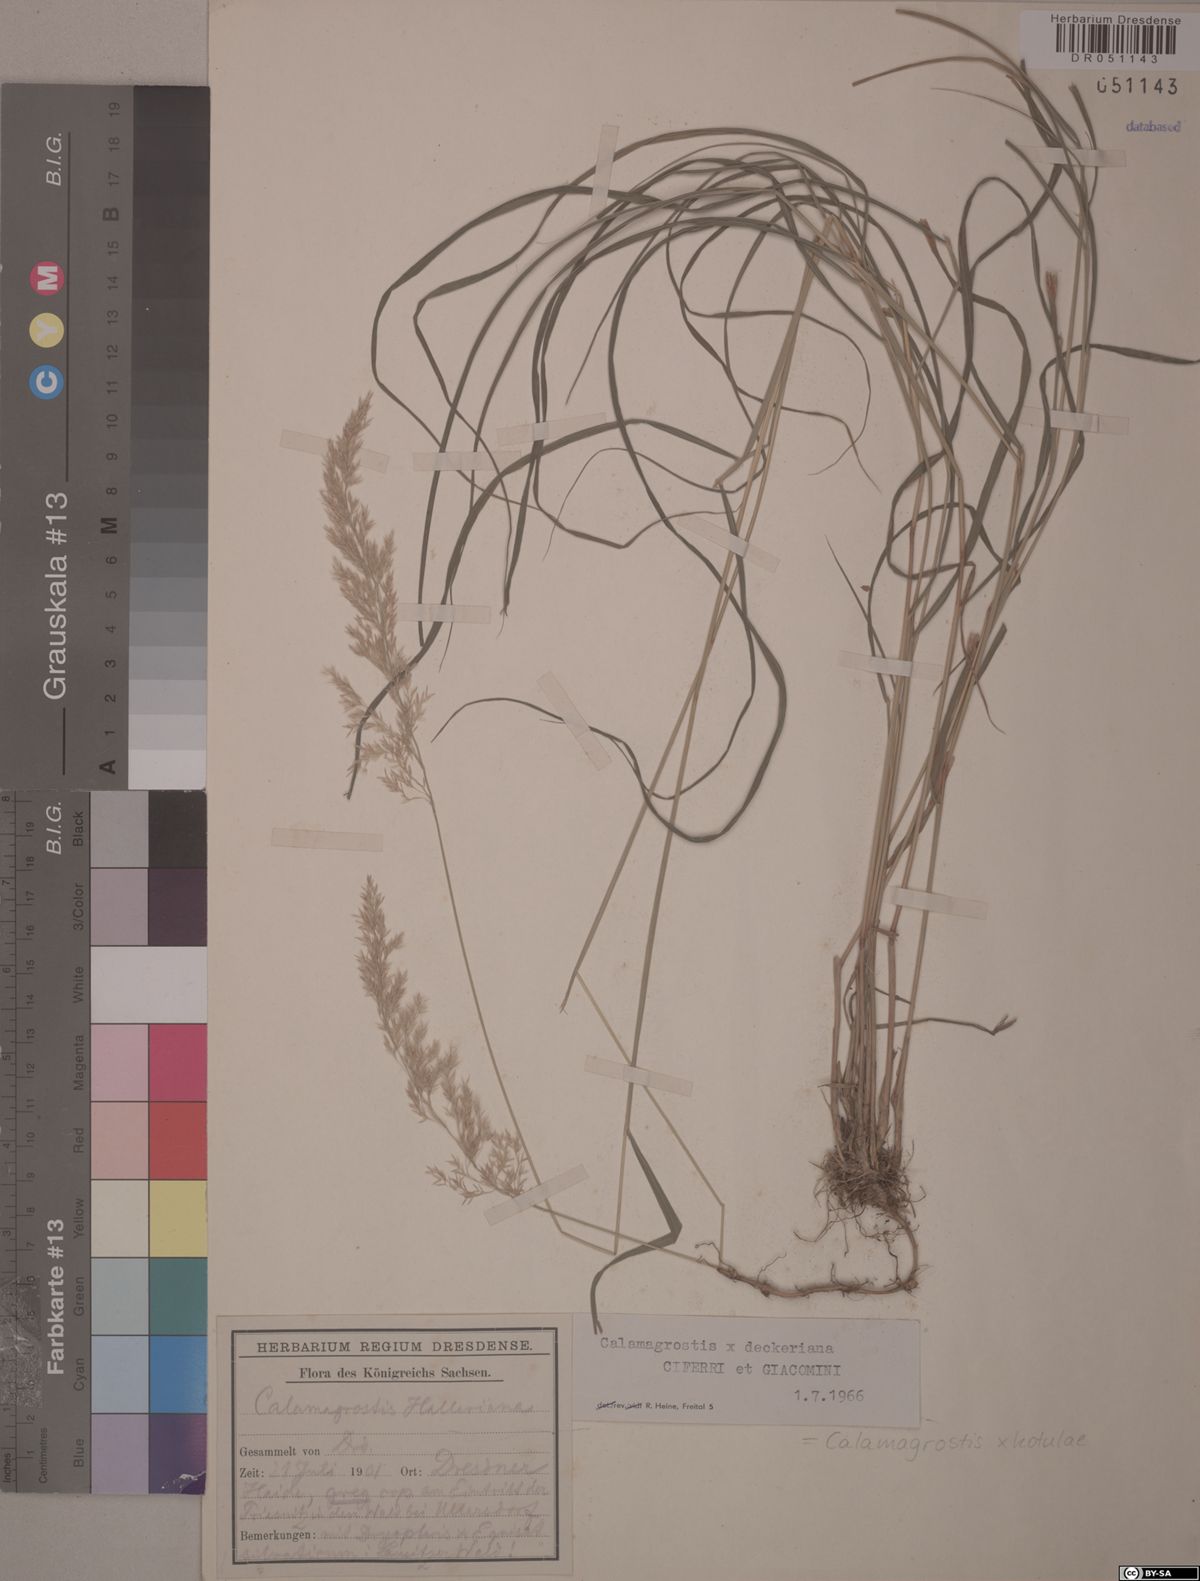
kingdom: Plantae
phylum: Tracheophyta
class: Liliopsida
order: Poales
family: Poaceae
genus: Calamagrostis
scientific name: Calamagrostis kotulae
